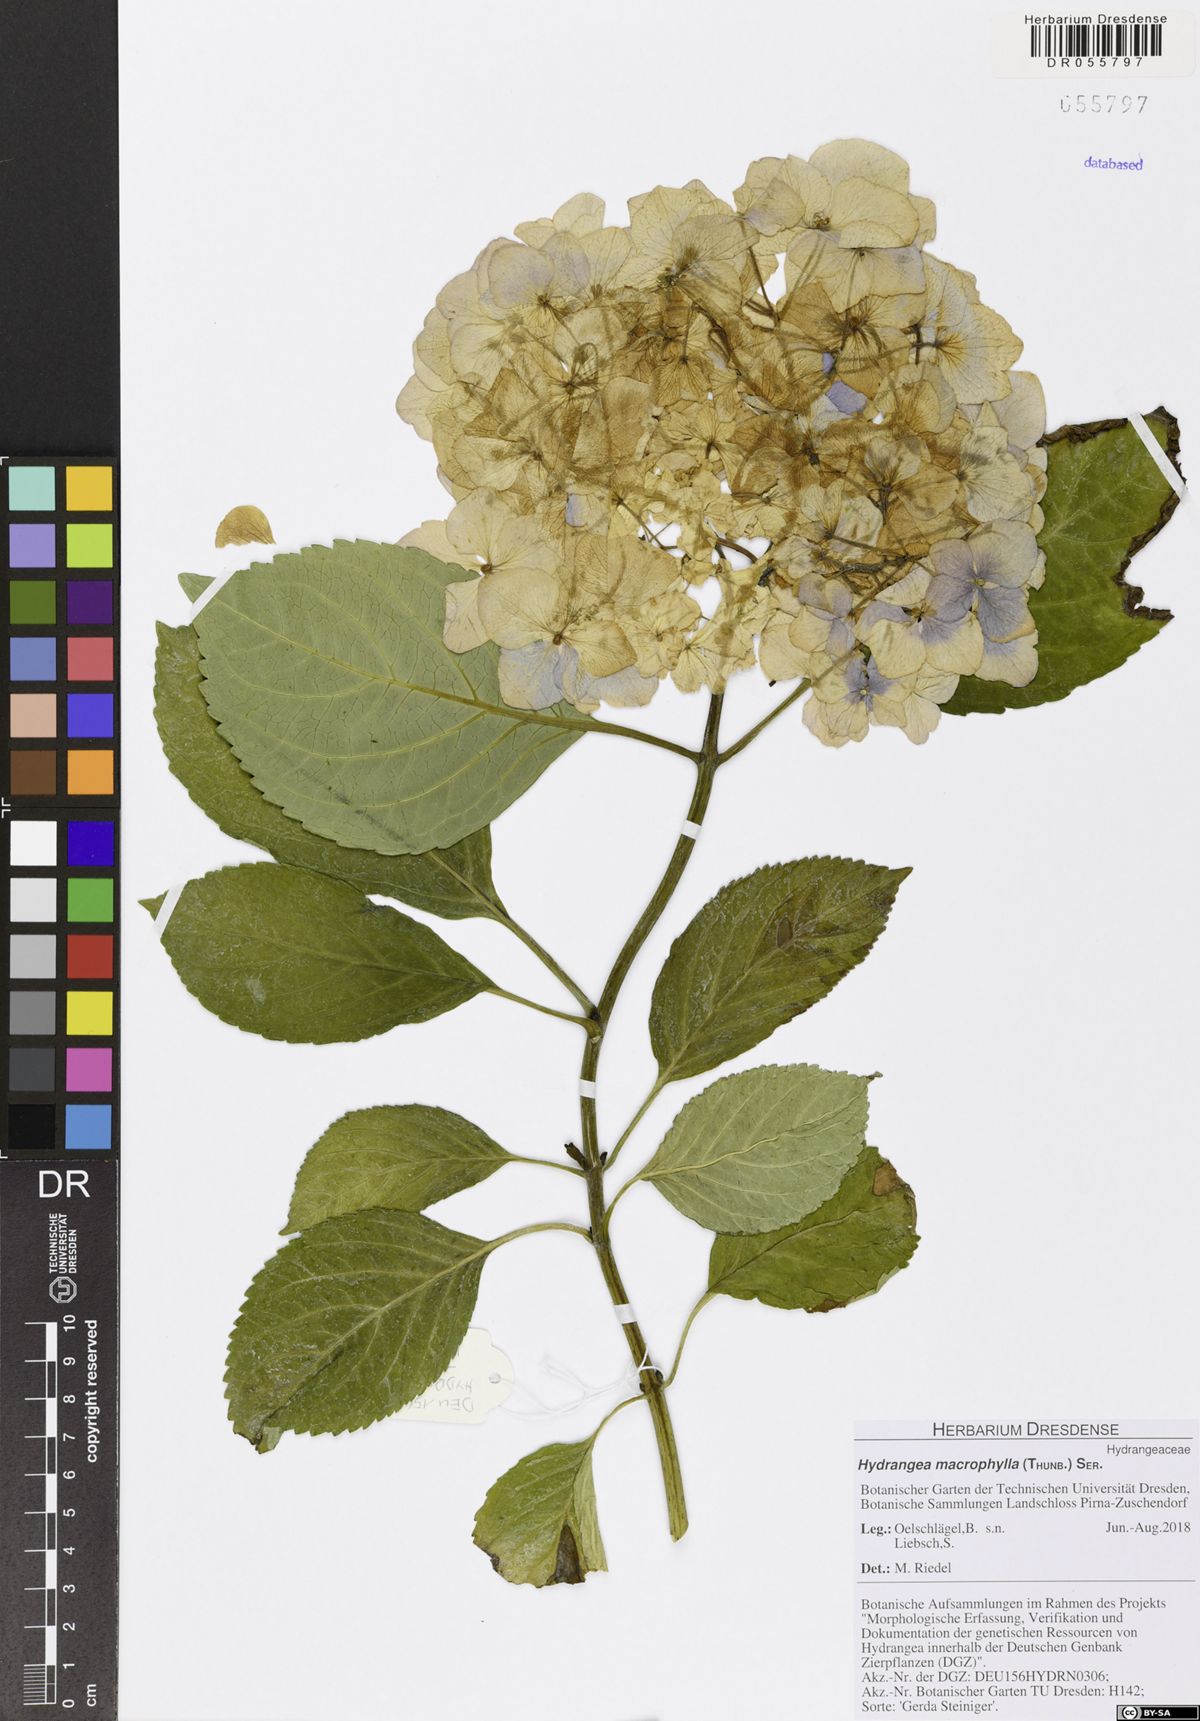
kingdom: Plantae
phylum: Tracheophyta
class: Magnoliopsida
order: Cornales
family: Hydrangeaceae
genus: Hydrangea
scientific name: Hydrangea macrophylla
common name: Hydrangea
